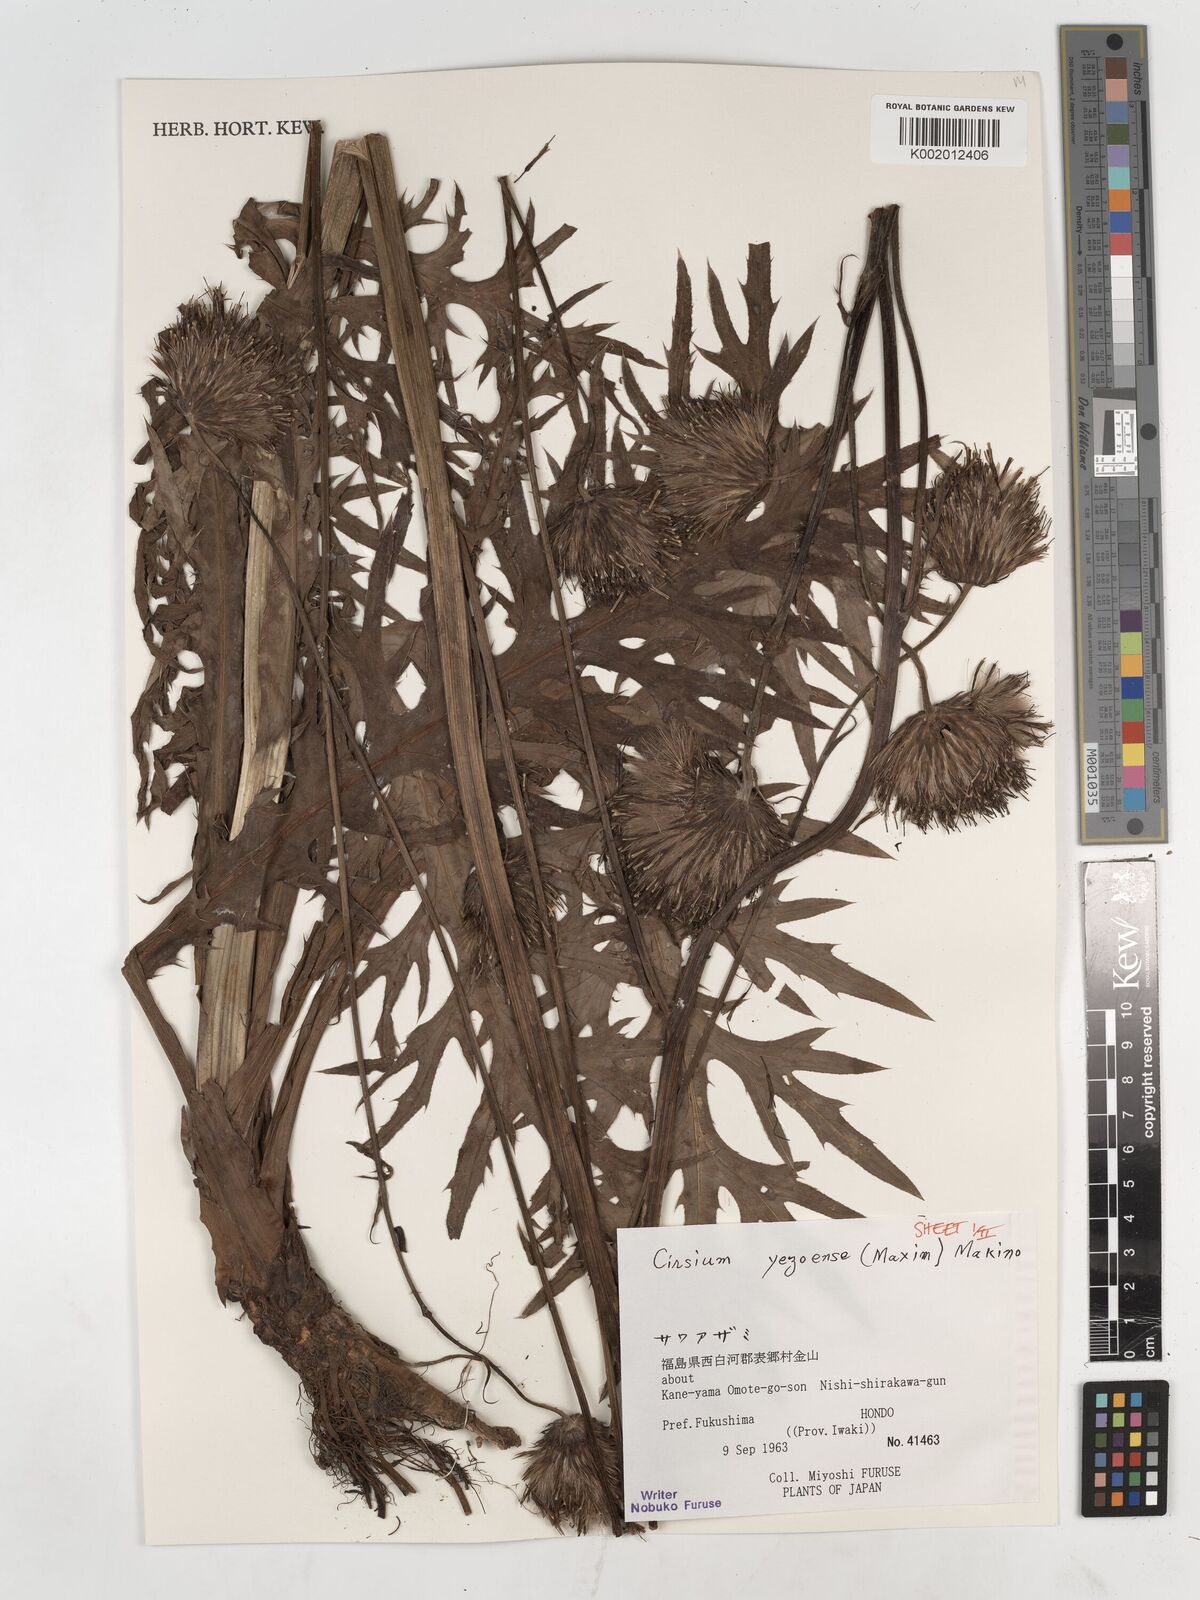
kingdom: Plantae
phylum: Tracheophyta
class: Magnoliopsida
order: Asterales
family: Asteraceae
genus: Cirsium
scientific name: Cirsium yezoense
